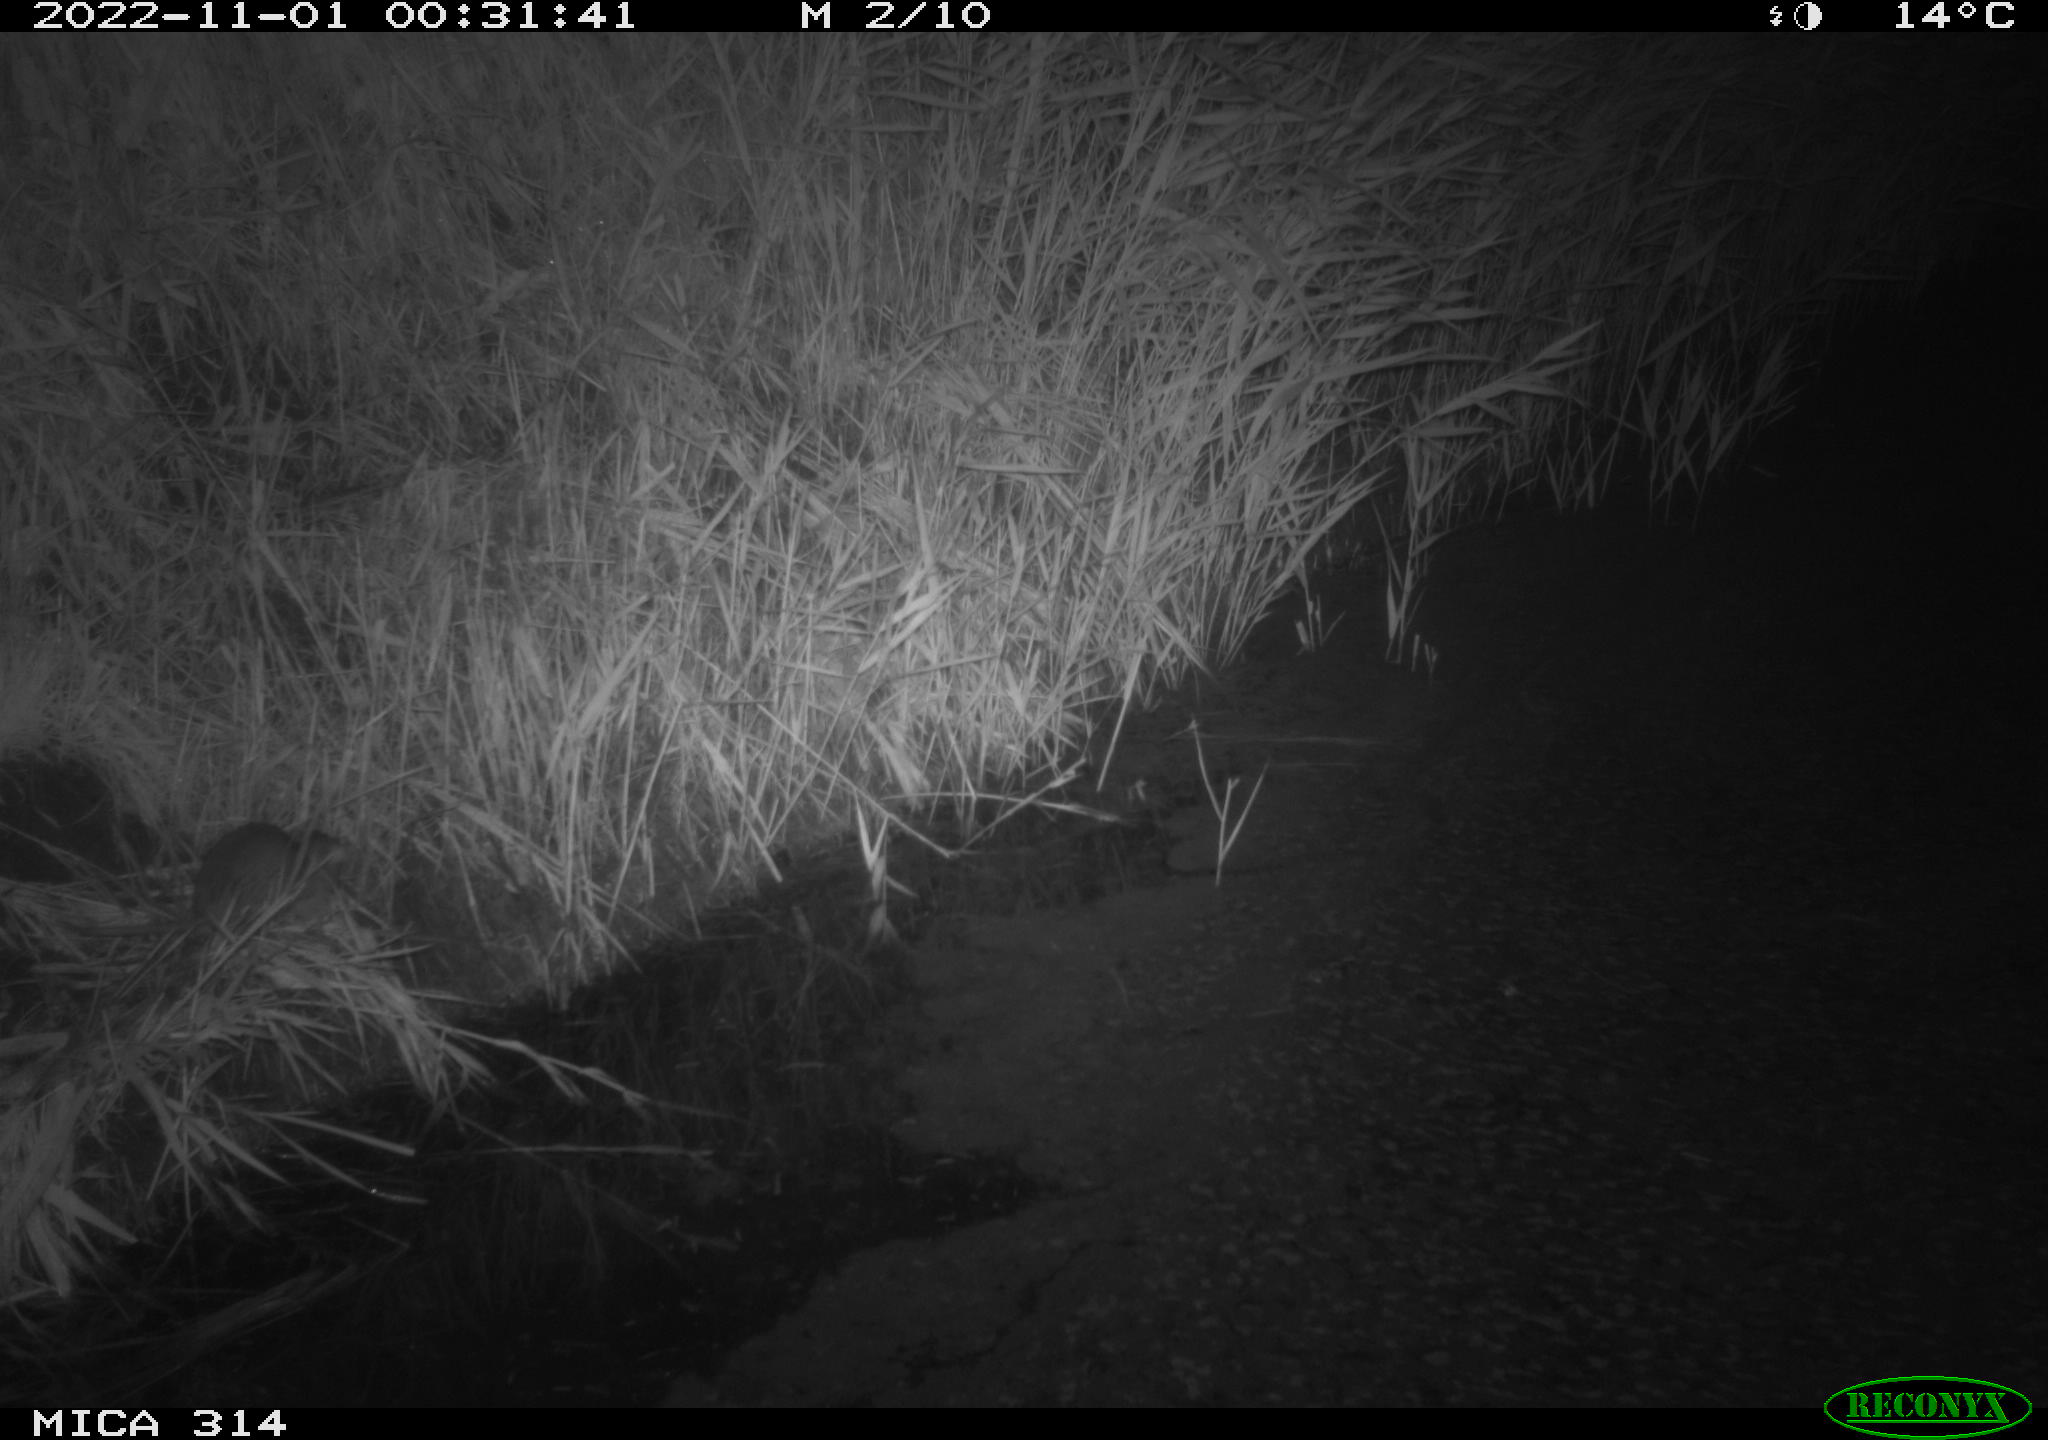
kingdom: Animalia
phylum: Chordata
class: Mammalia
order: Rodentia
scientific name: Rodentia
